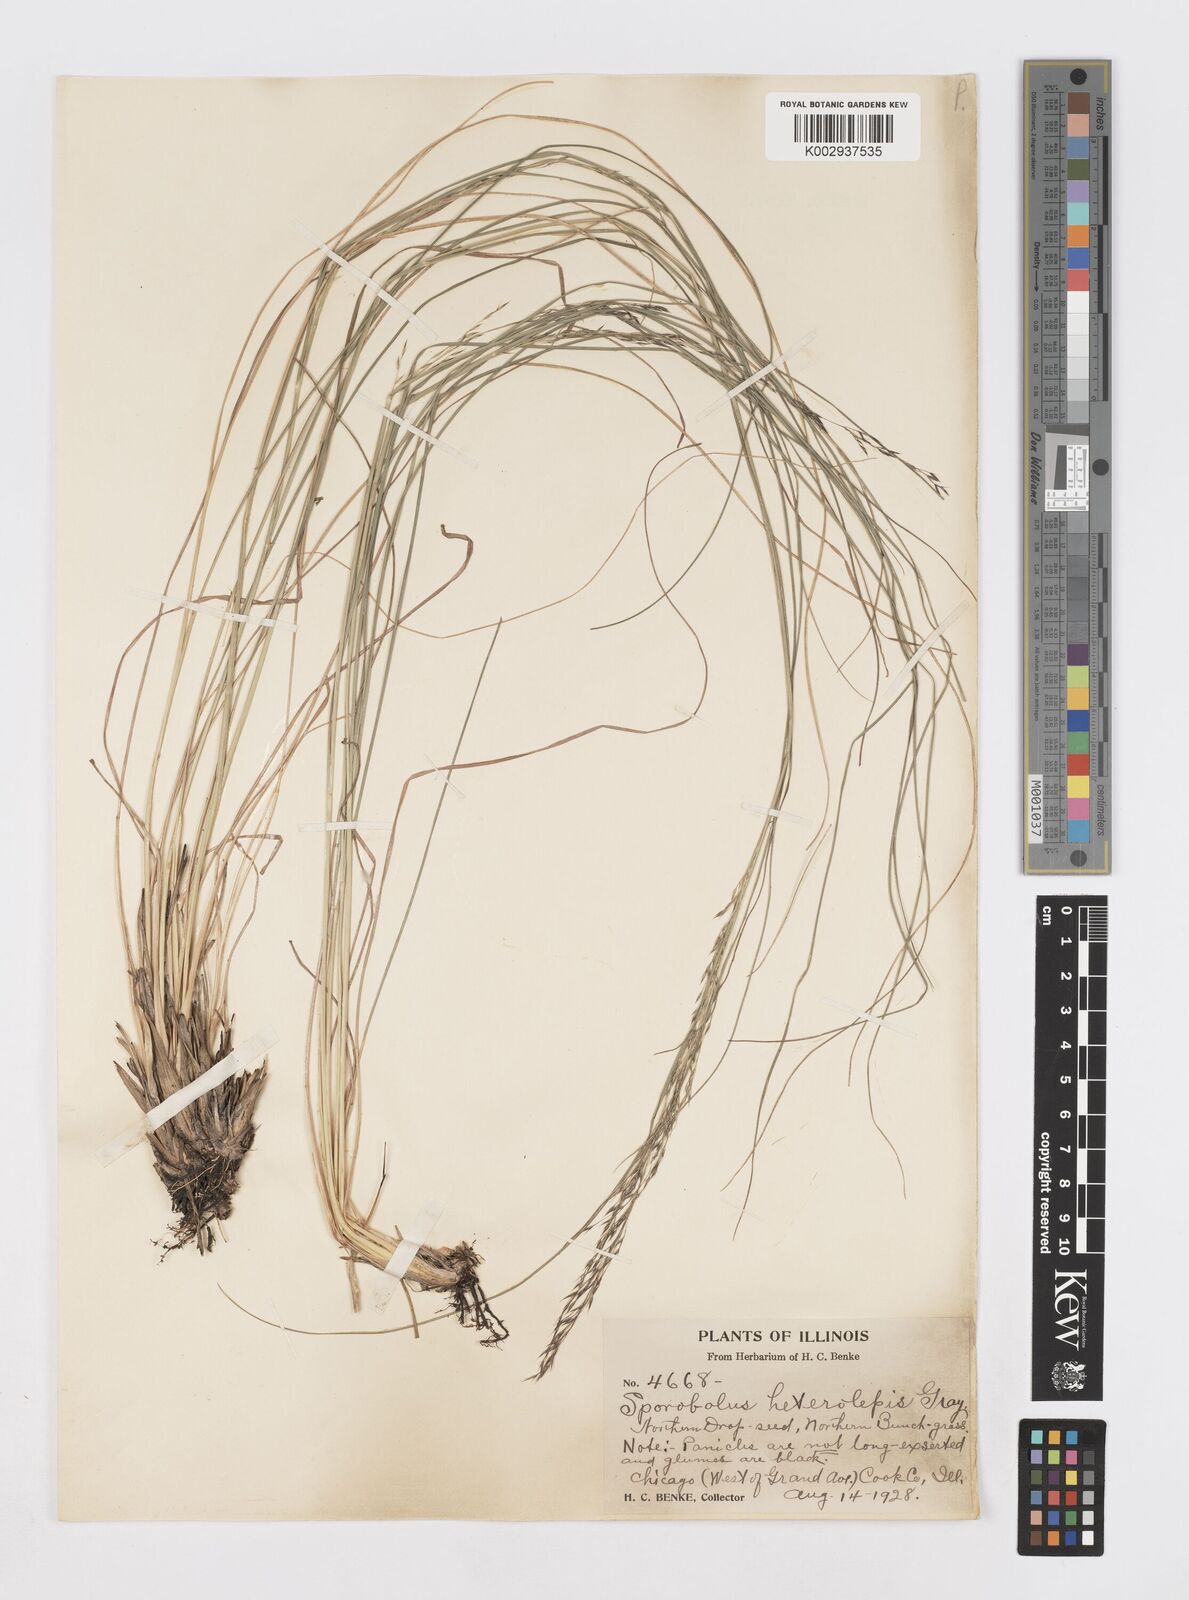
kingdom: Plantae
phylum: Tracheophyta
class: Liliopsida
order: Poales
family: Poaceae
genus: Sporobolus
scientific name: Sporobolus heterolepis
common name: Prairie dropseed
